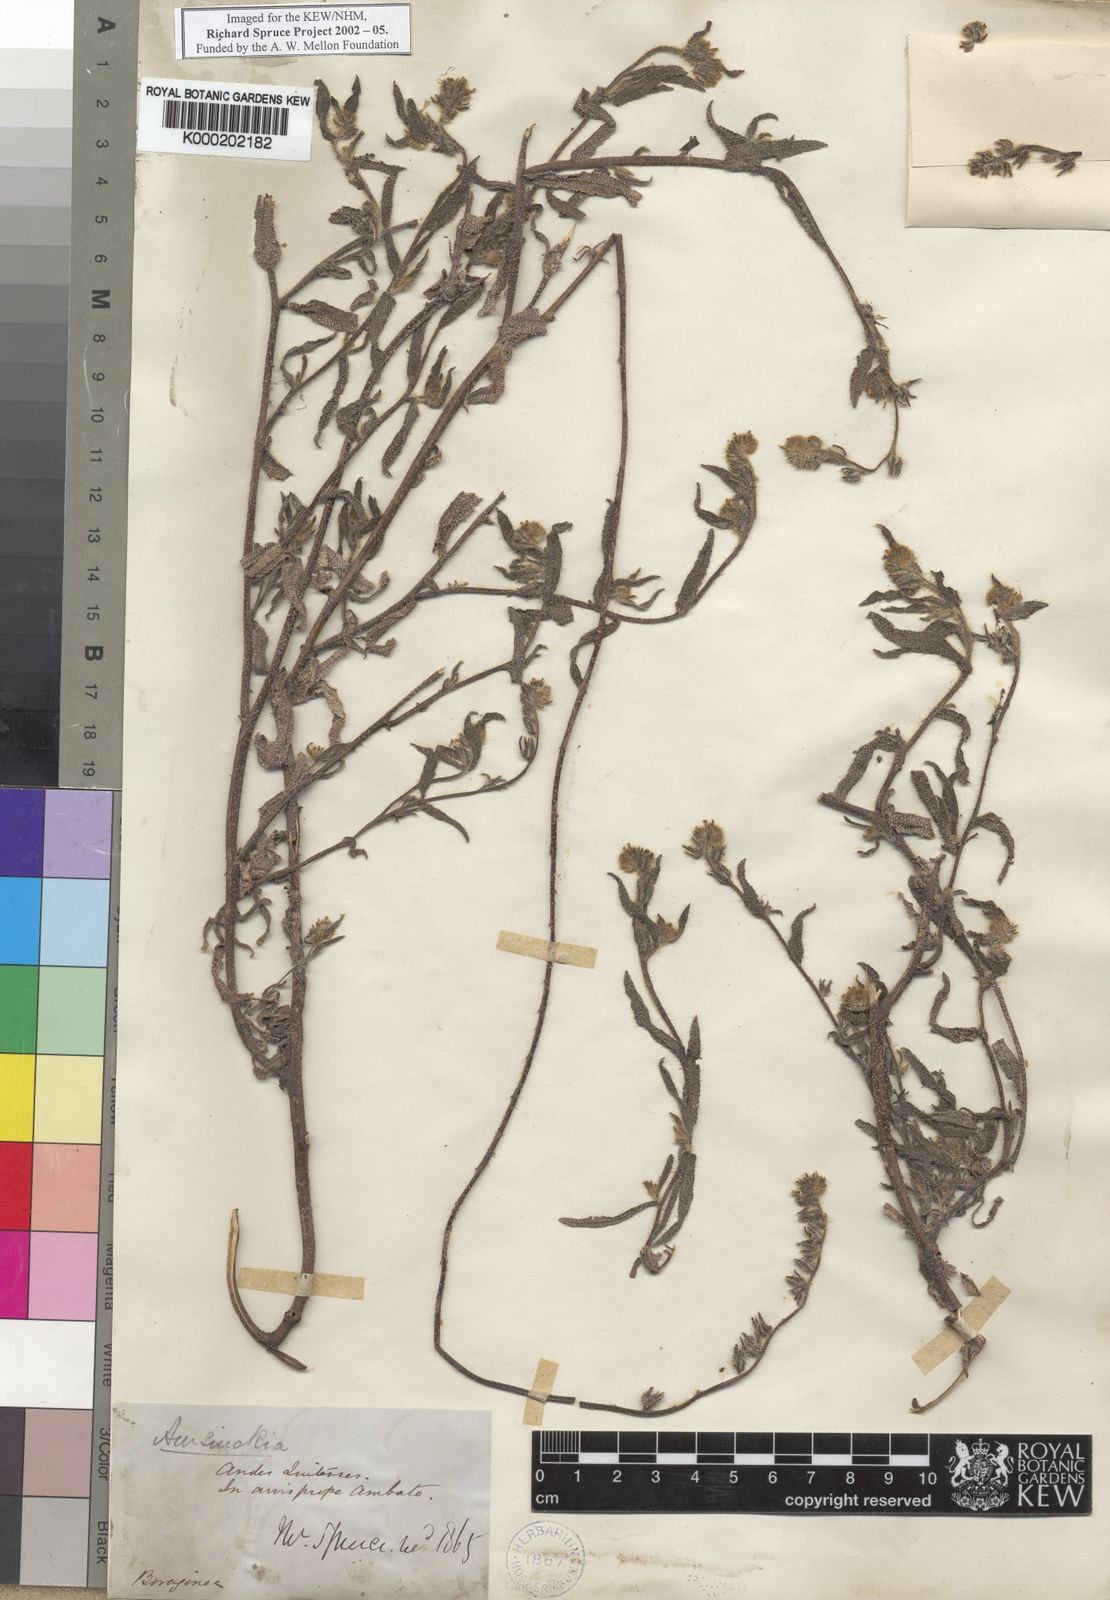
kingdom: Plantae
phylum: Tracheophyta
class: Magnoliopsida
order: Boraginales
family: Boraginaceae
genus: Amsinckia
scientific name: Amsinckia calycina
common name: Hairy fiddleneck
